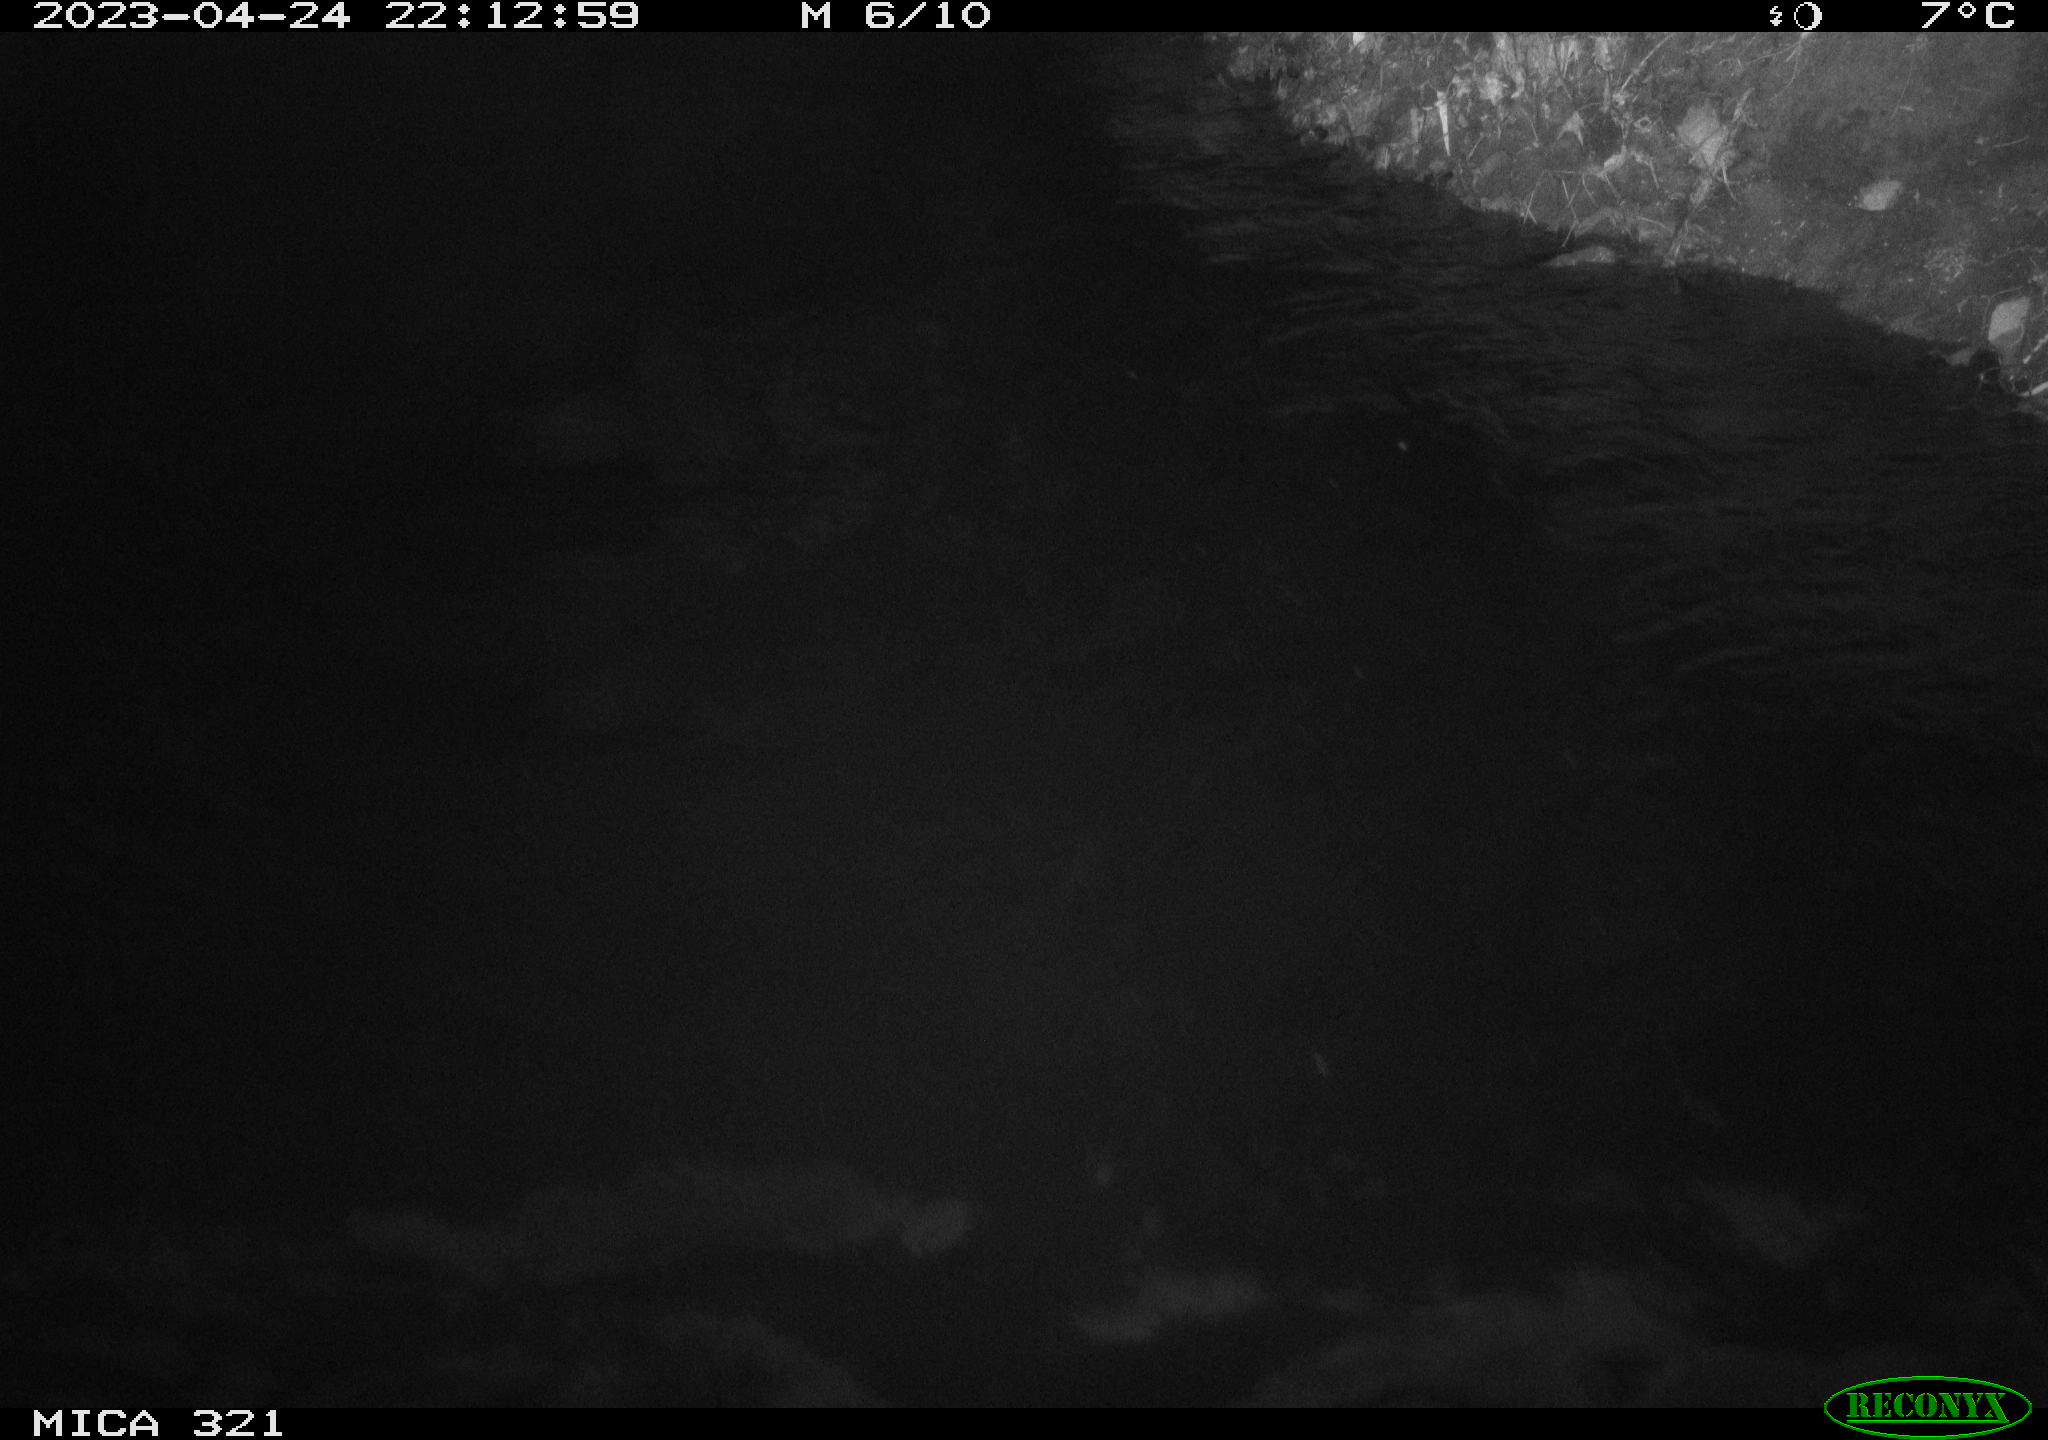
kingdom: Animalia
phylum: Chordata
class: Aves
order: Anseriformes
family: Anatidae
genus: Anas
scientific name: Anas
